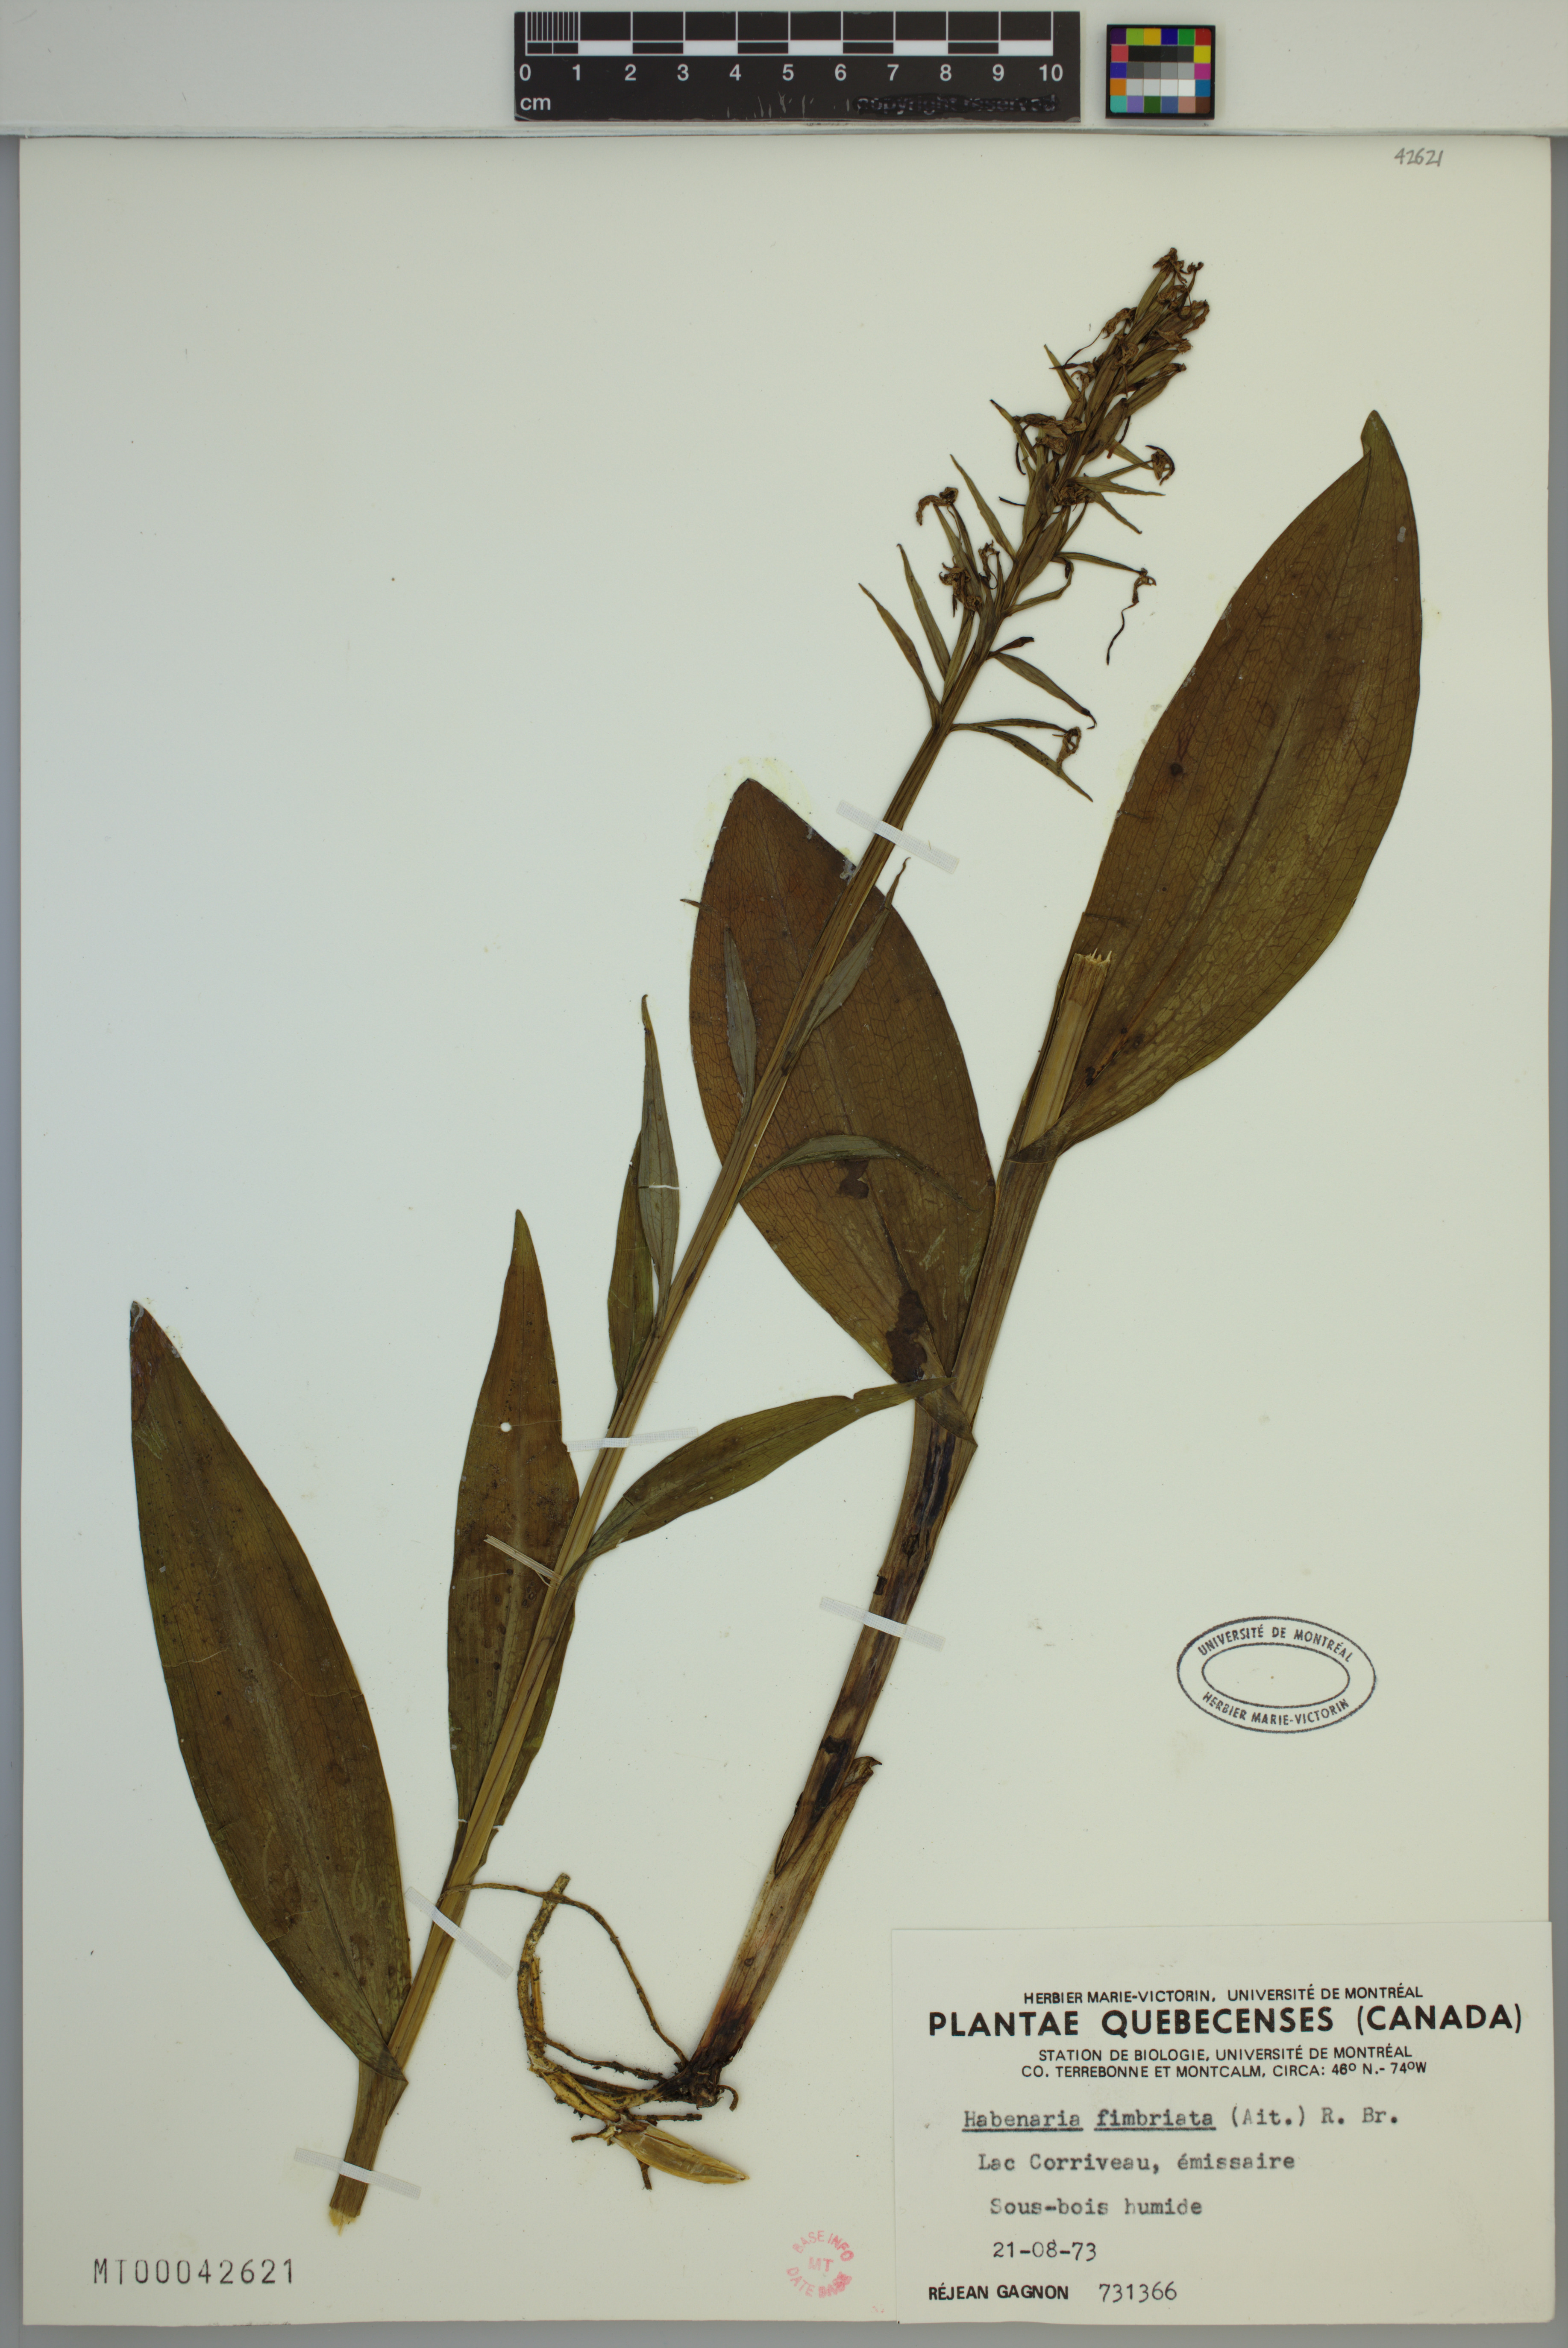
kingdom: Plantae
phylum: Tracheophyta
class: Liliopsida
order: Asparagales
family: Orchidaceae
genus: Platanthera
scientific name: Platanthera grandiflora
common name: Greater purple fringed orchid
